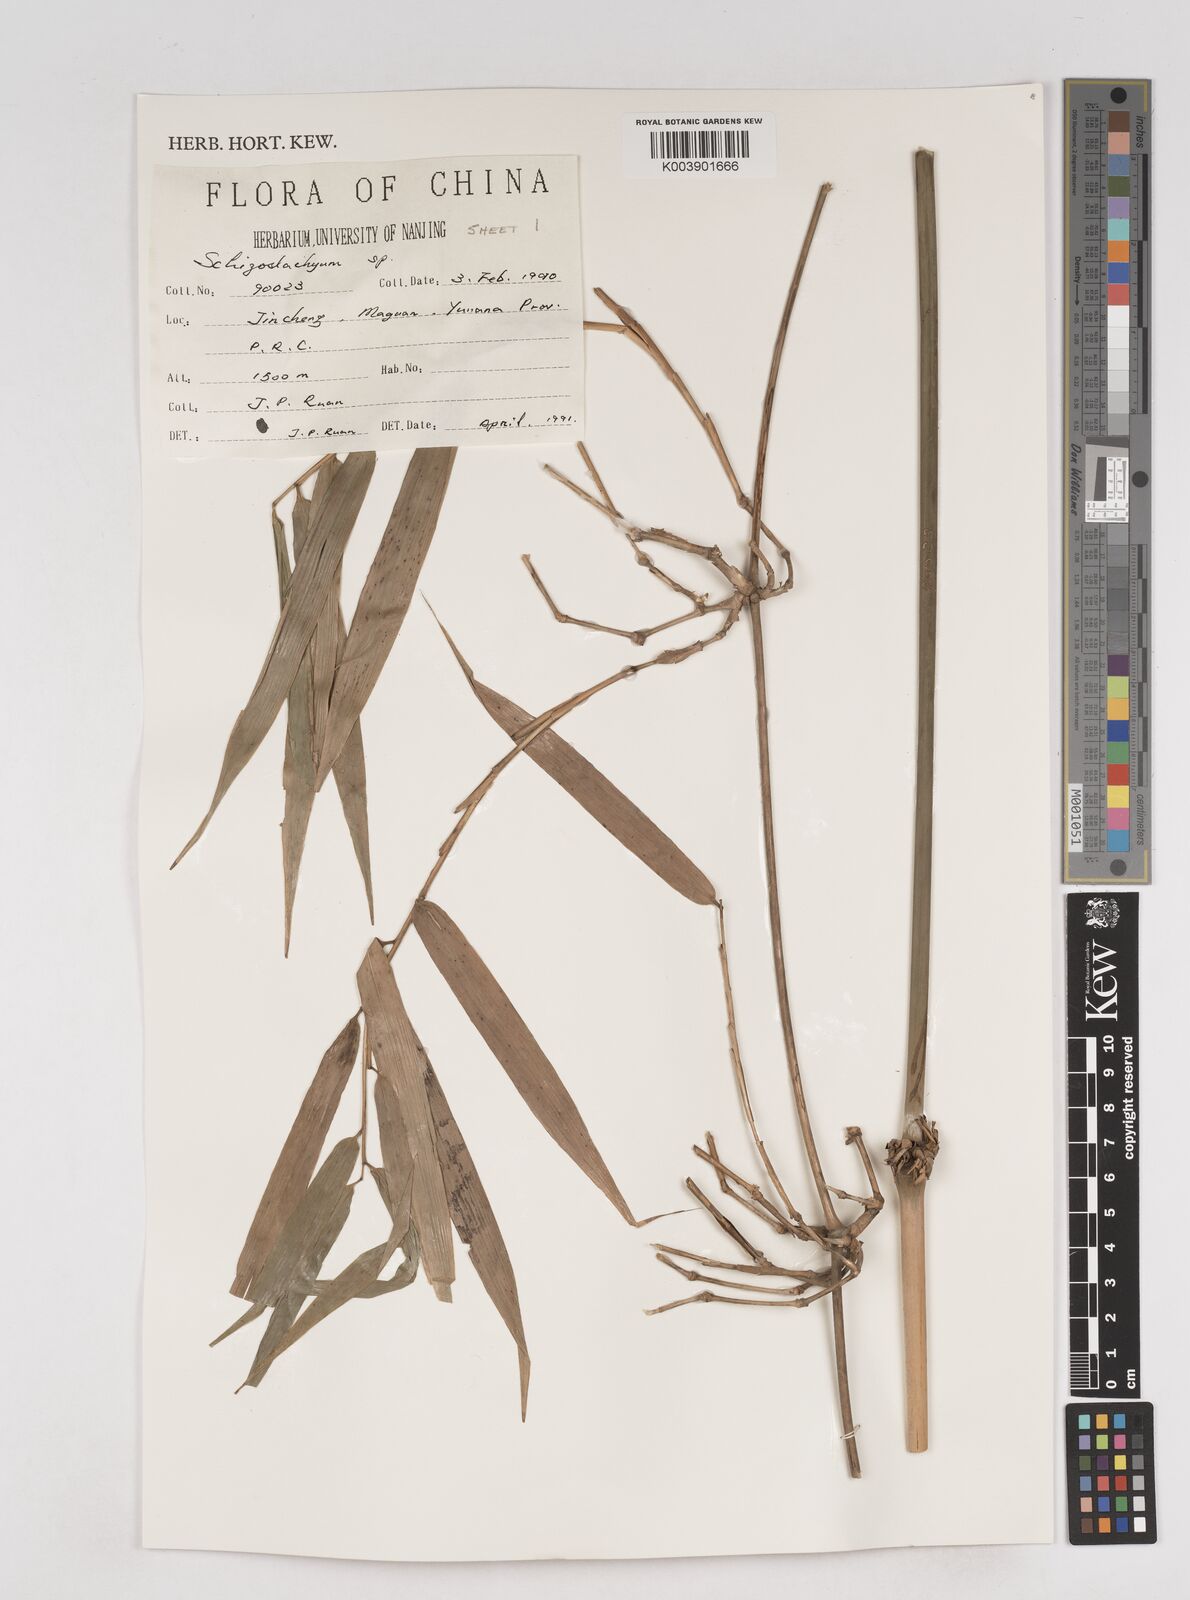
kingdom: Plantae
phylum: Tracheophyta
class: Liliopsida
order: Poales
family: Poaceae
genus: Schizostachyum
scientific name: Schizostachyum
